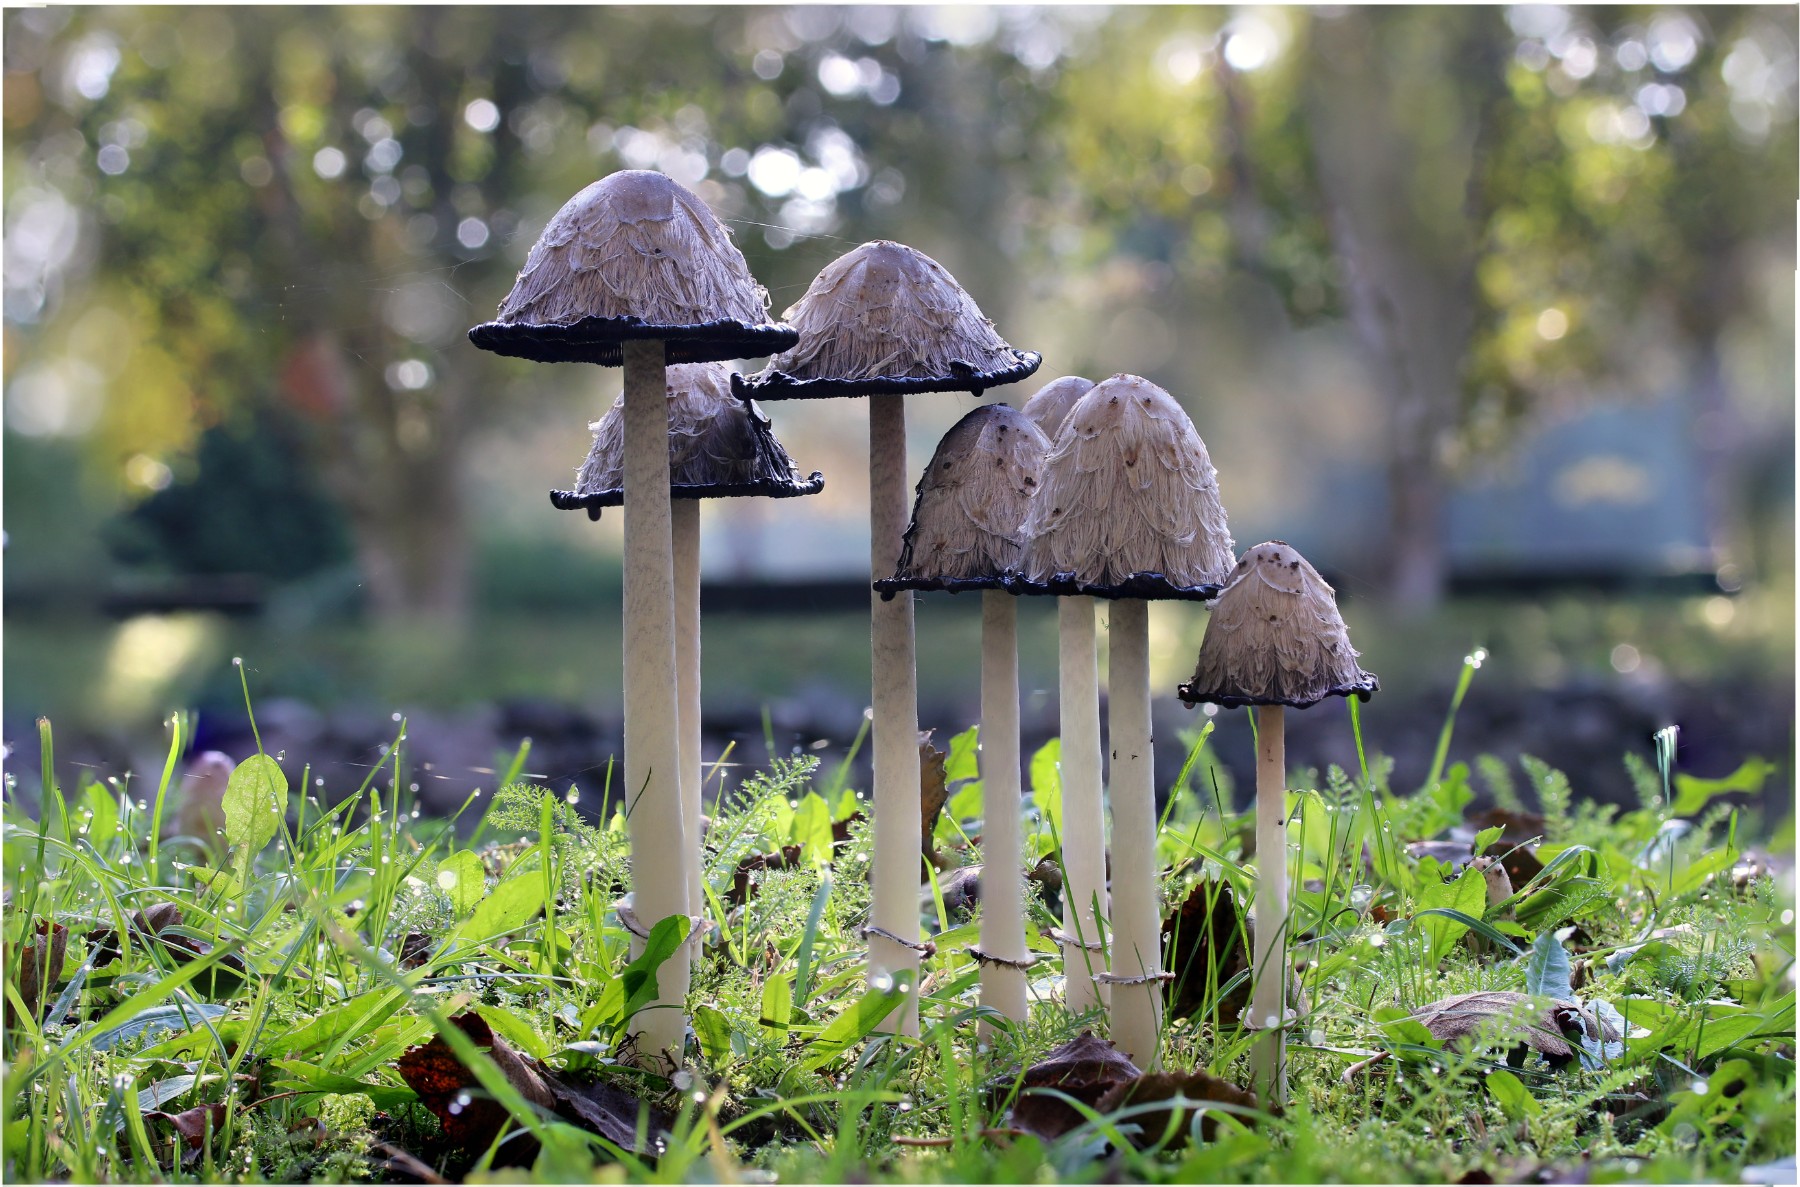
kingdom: Fungi
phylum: Basidiomycota
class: Agaricomycetes
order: Agaricales
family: Agaricaceae
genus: Coprinus
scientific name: Coprinus comatus
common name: stor parykhat
